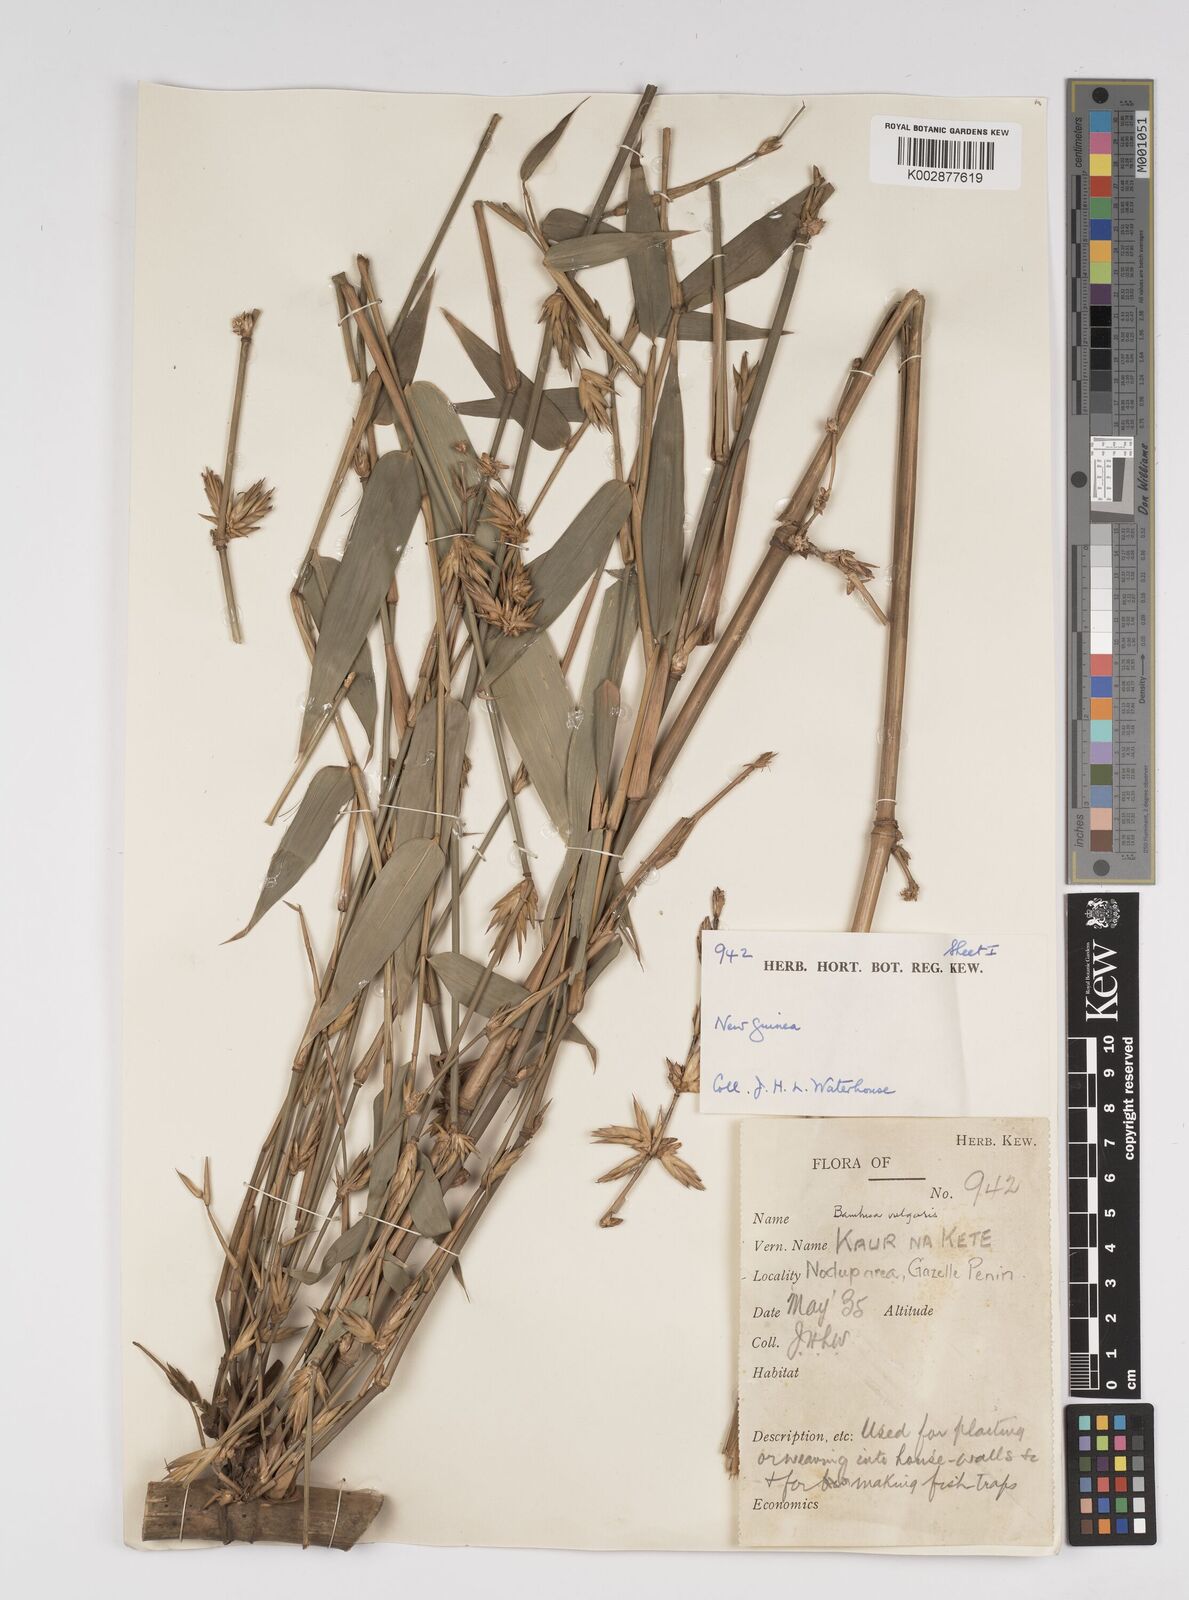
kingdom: Plantae
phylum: Tracheophyta
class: Liliopsida
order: Poales
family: Poaceae
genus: Bambusa
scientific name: Bambusa balcooa
